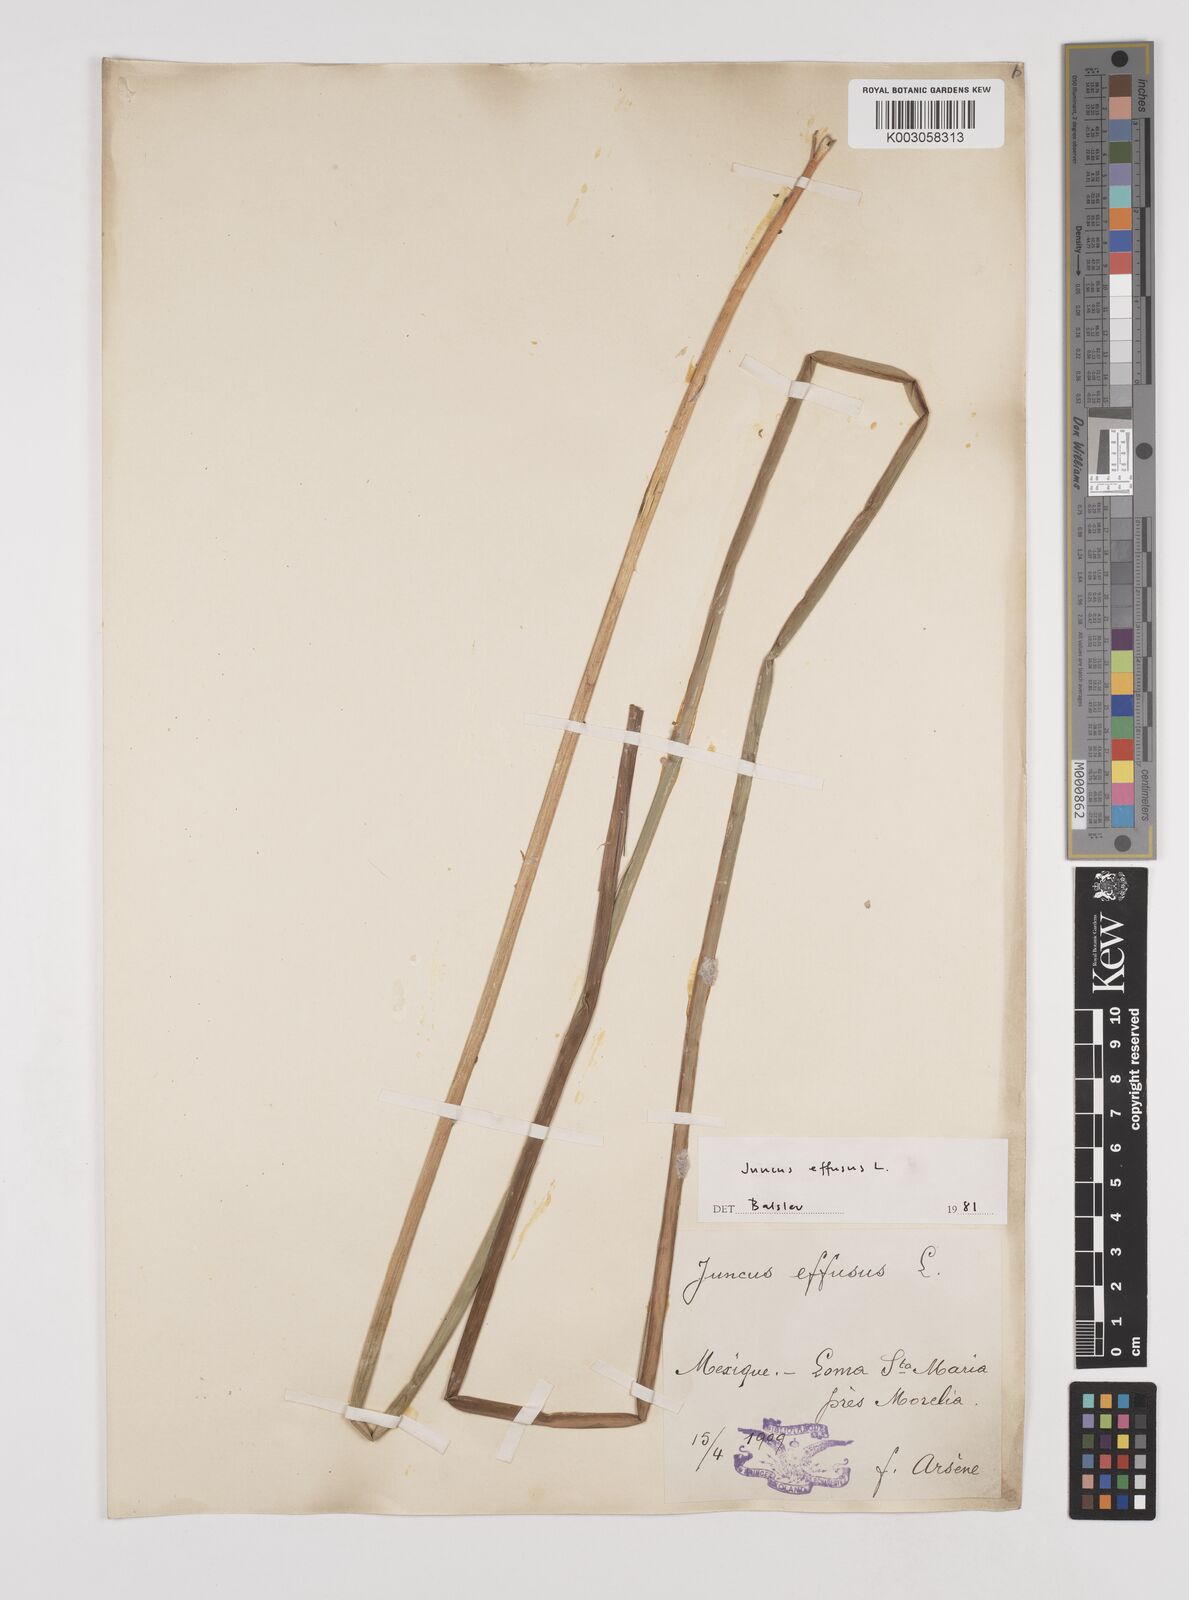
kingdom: Plantae
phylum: Tracheophyta
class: Liliopsida
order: Poales
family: Juncaceae
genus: Juncus
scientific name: Juncus effusus
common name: Soft rush
